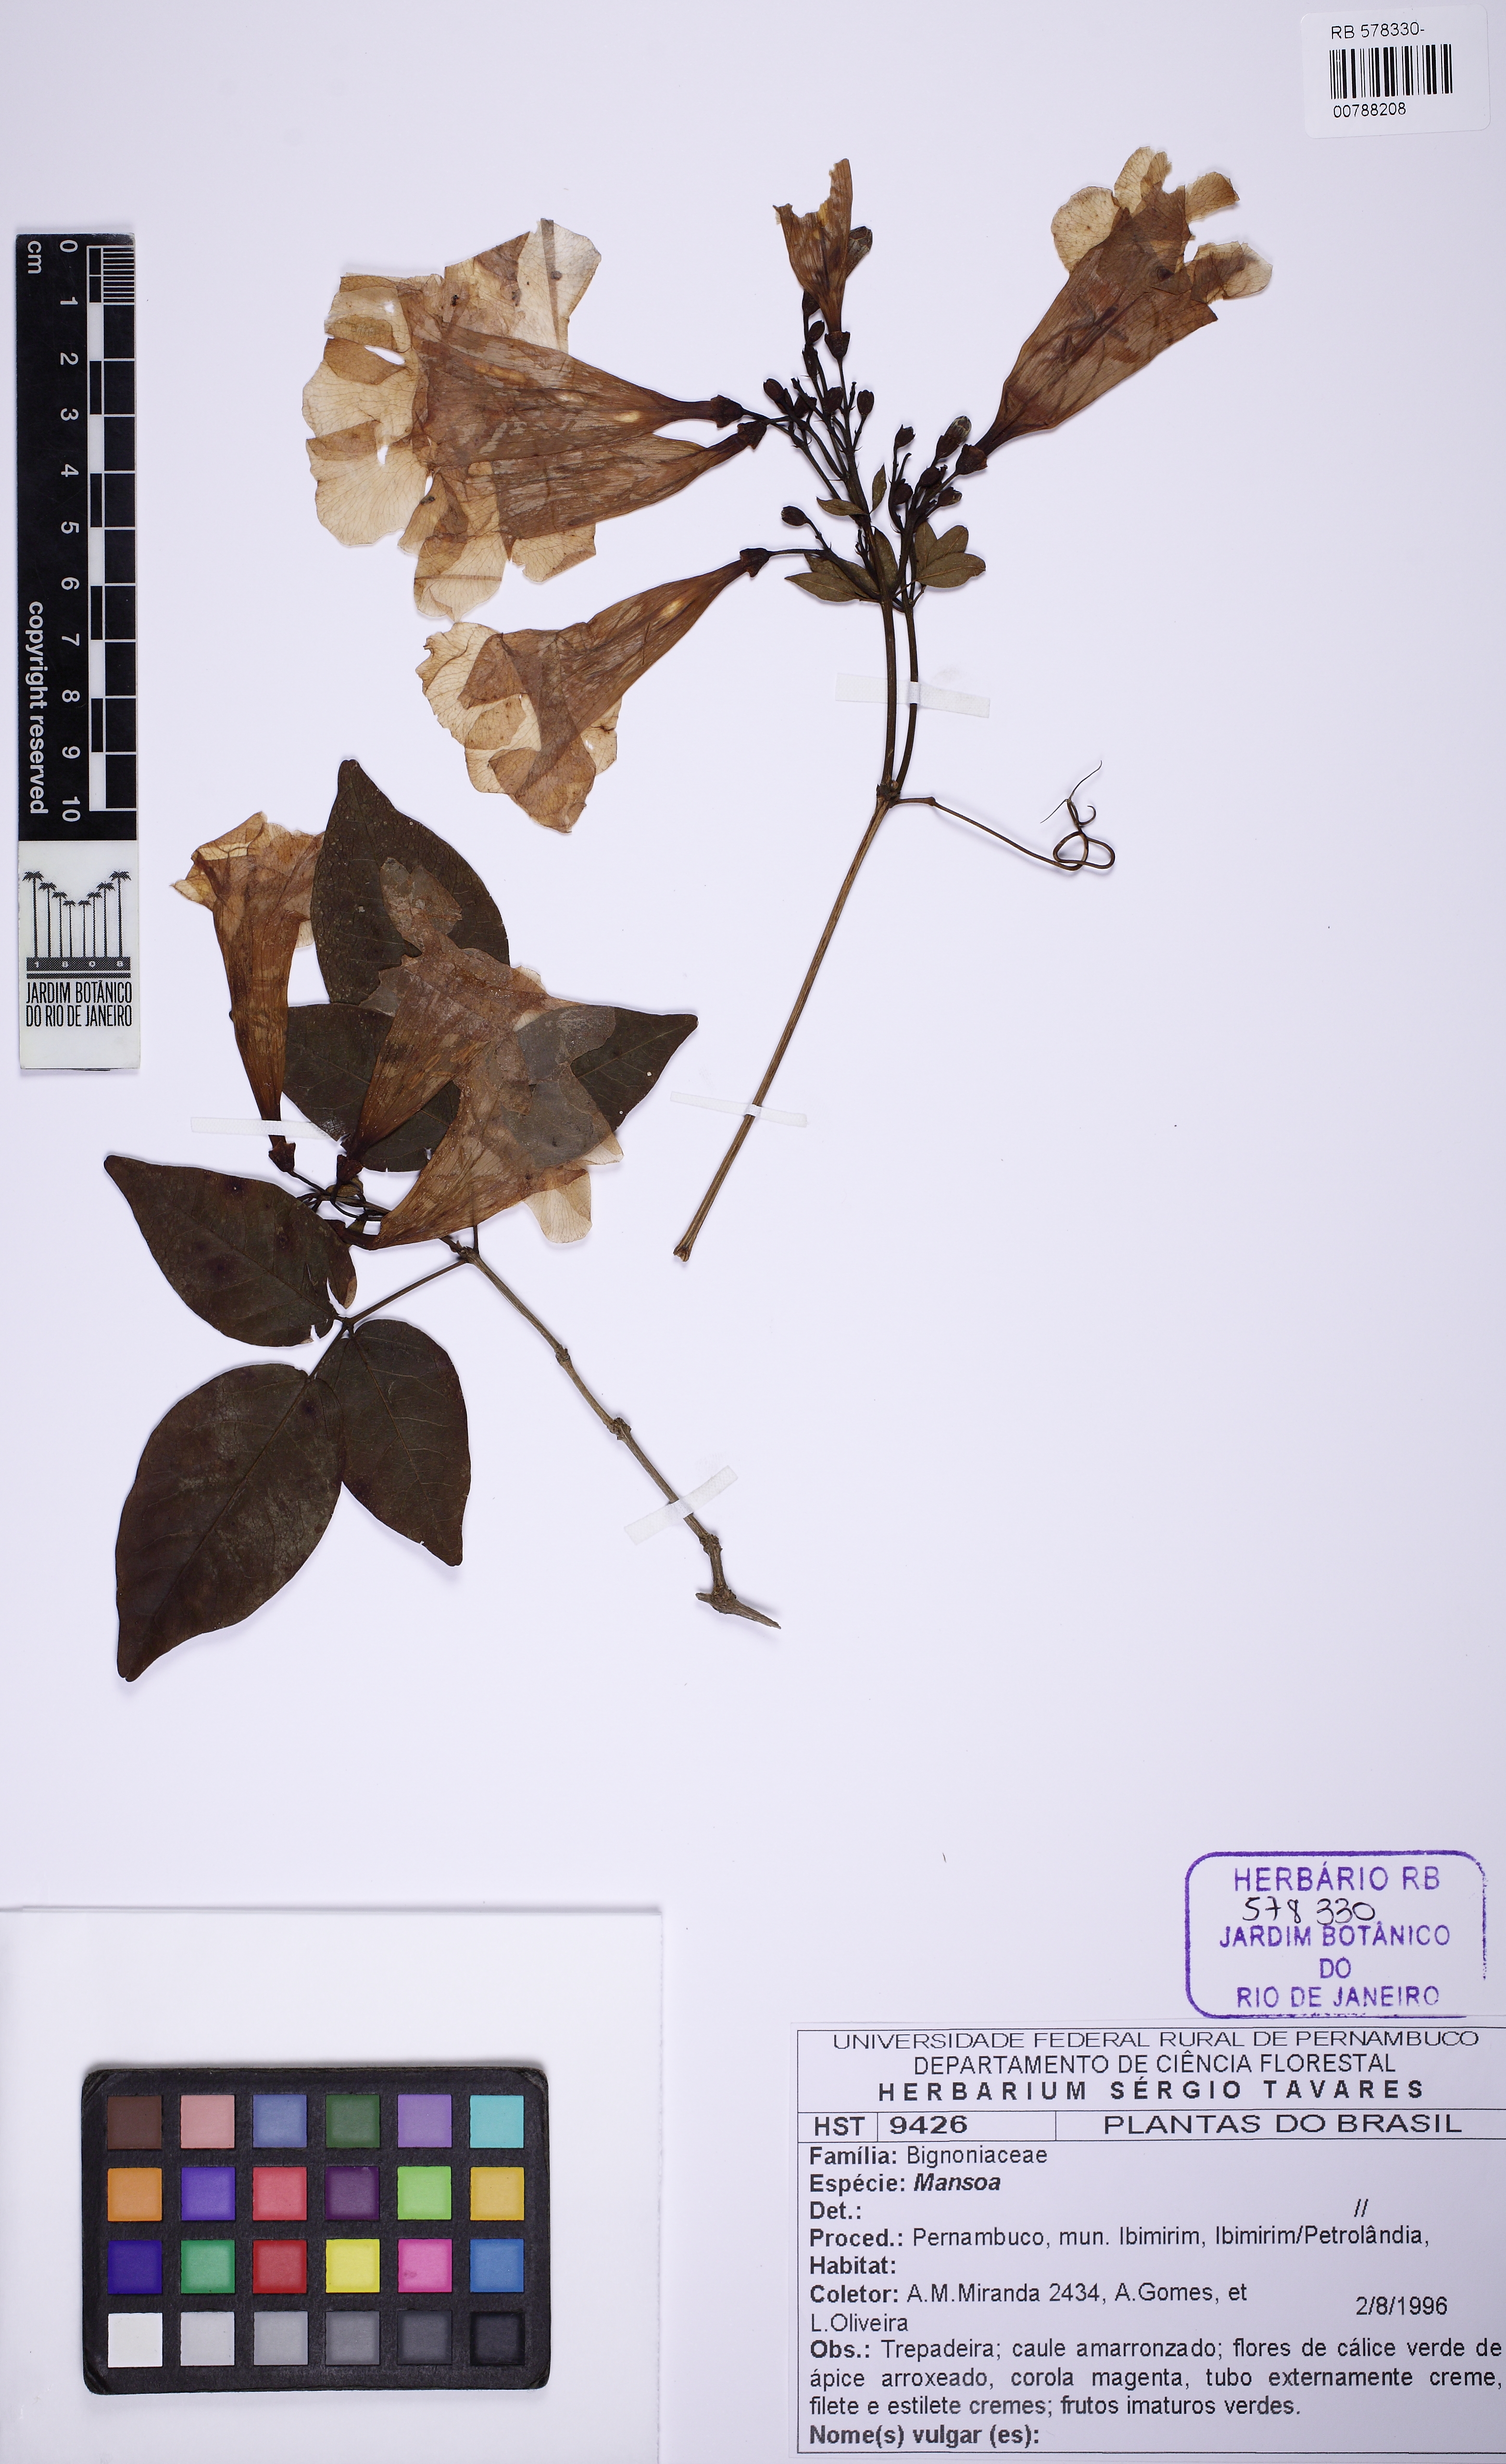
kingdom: Plantae
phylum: Tracheophyta
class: Magnoliopsida
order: Lamiales
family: Bignoniaceae
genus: Mansoa
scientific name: Mansoa
